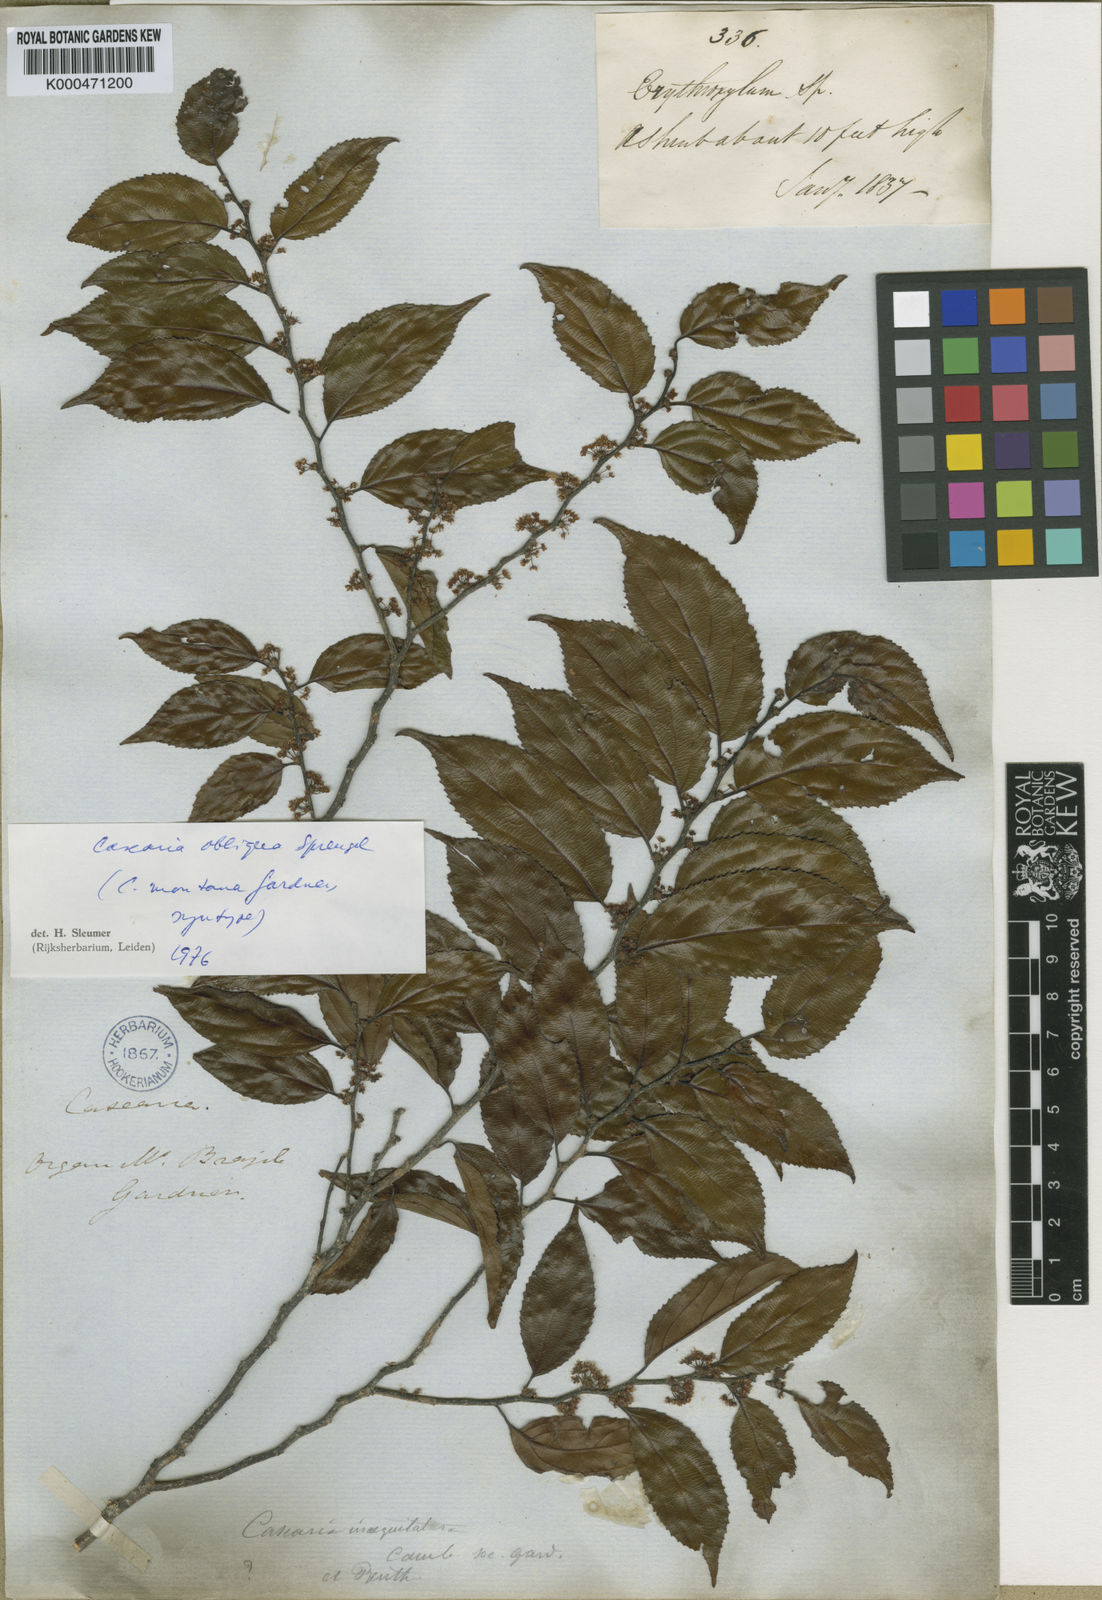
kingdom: Plantae
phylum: Tracheophyta
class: Magnoliopsida
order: Malpighiales
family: Salicaceae
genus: Casearia
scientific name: Casearia obliqua
